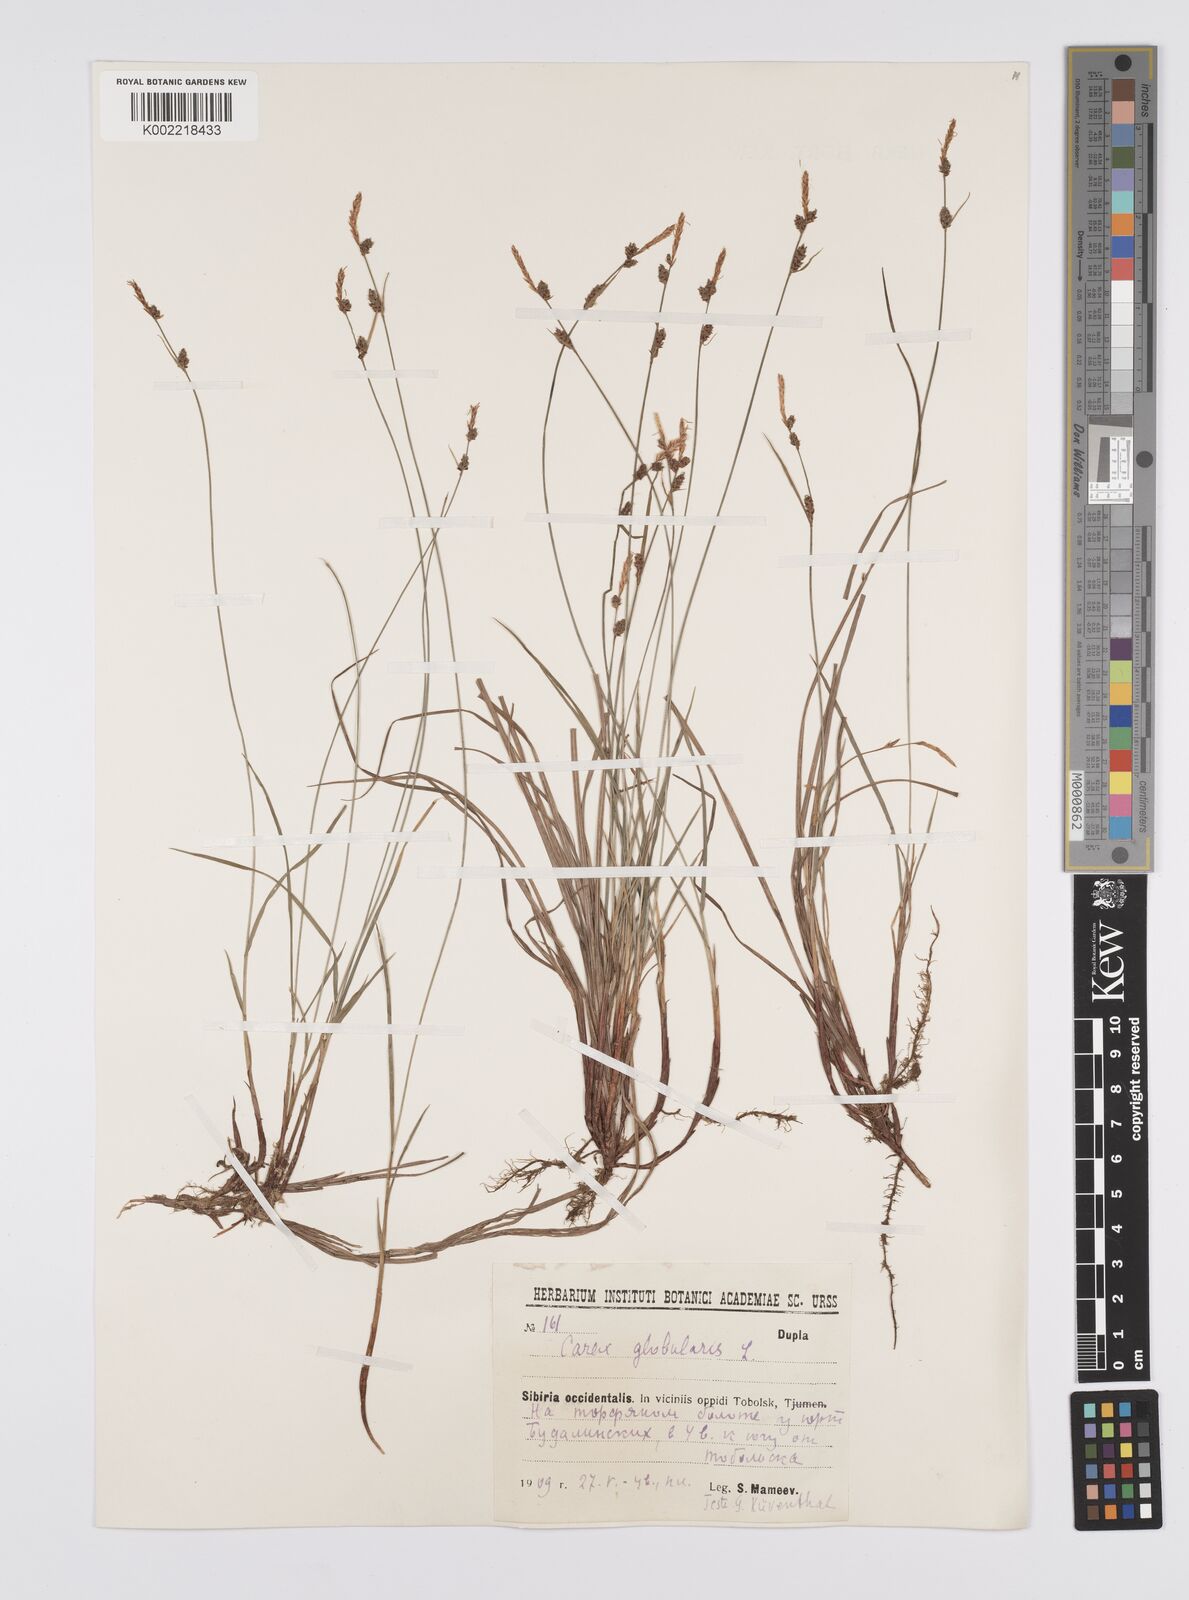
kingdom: Plantae
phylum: Tracheophyta
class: Liliopsida
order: Poales
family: Cyperaceae
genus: Carex
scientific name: Carex globularis
